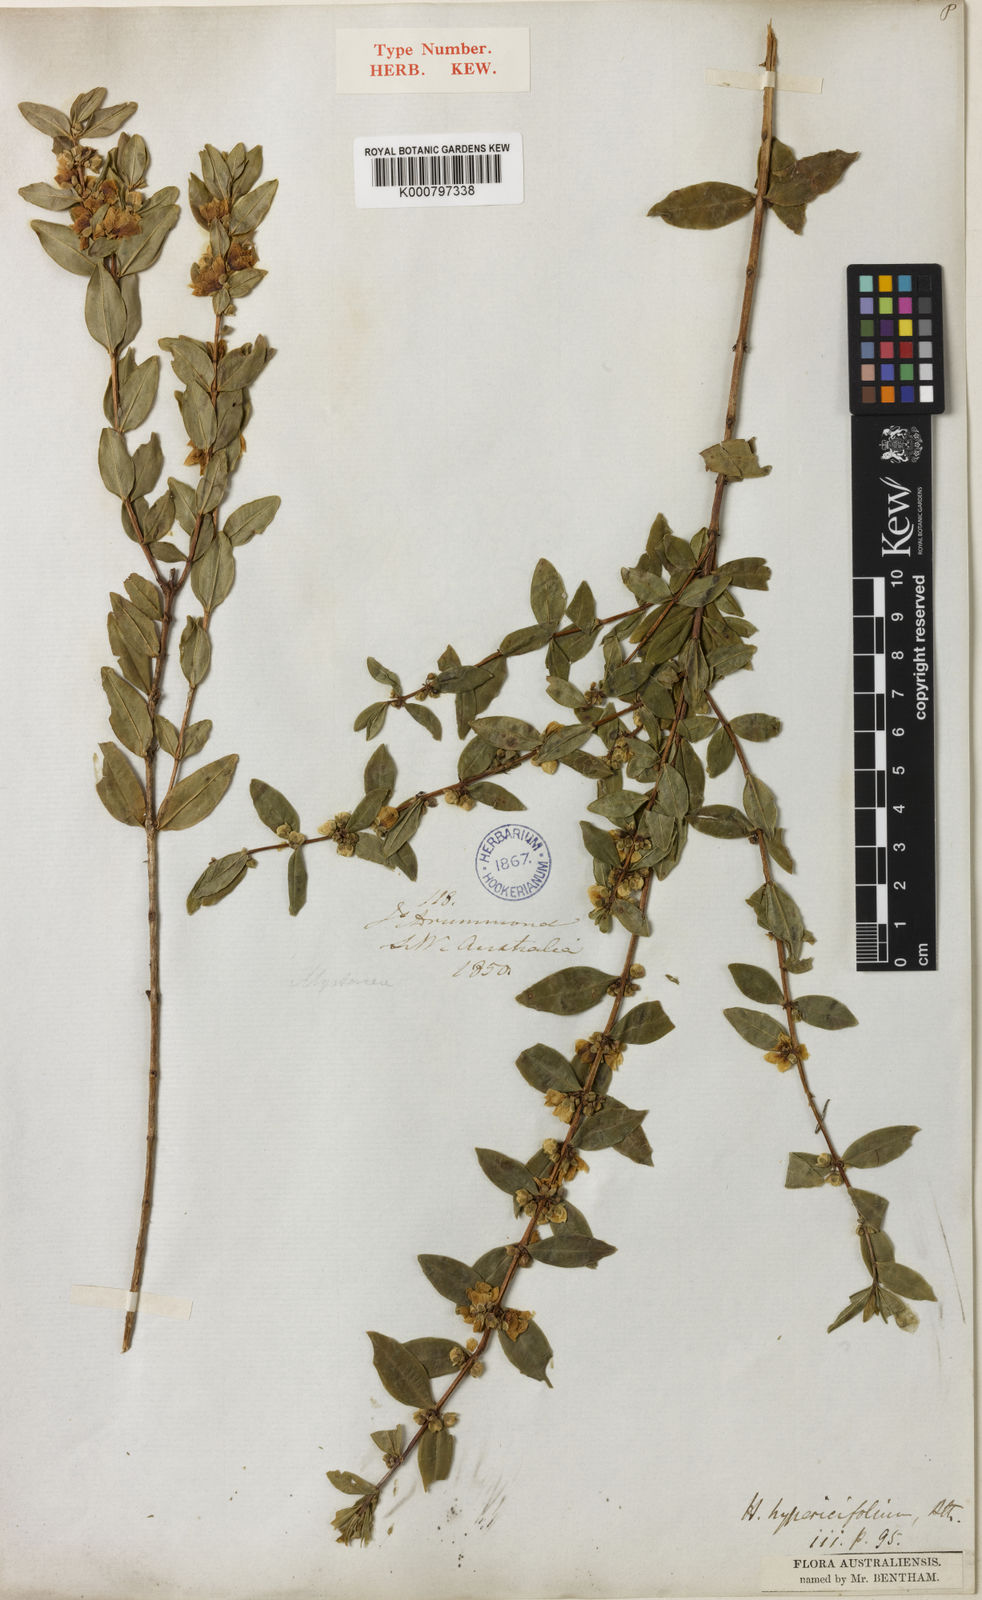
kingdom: Plantae
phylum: Tracheophyta
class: Magnoliopsida
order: Myrtales
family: Myrtaceae
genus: Hypocalymma
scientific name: Hypocalymma myrtifolium
